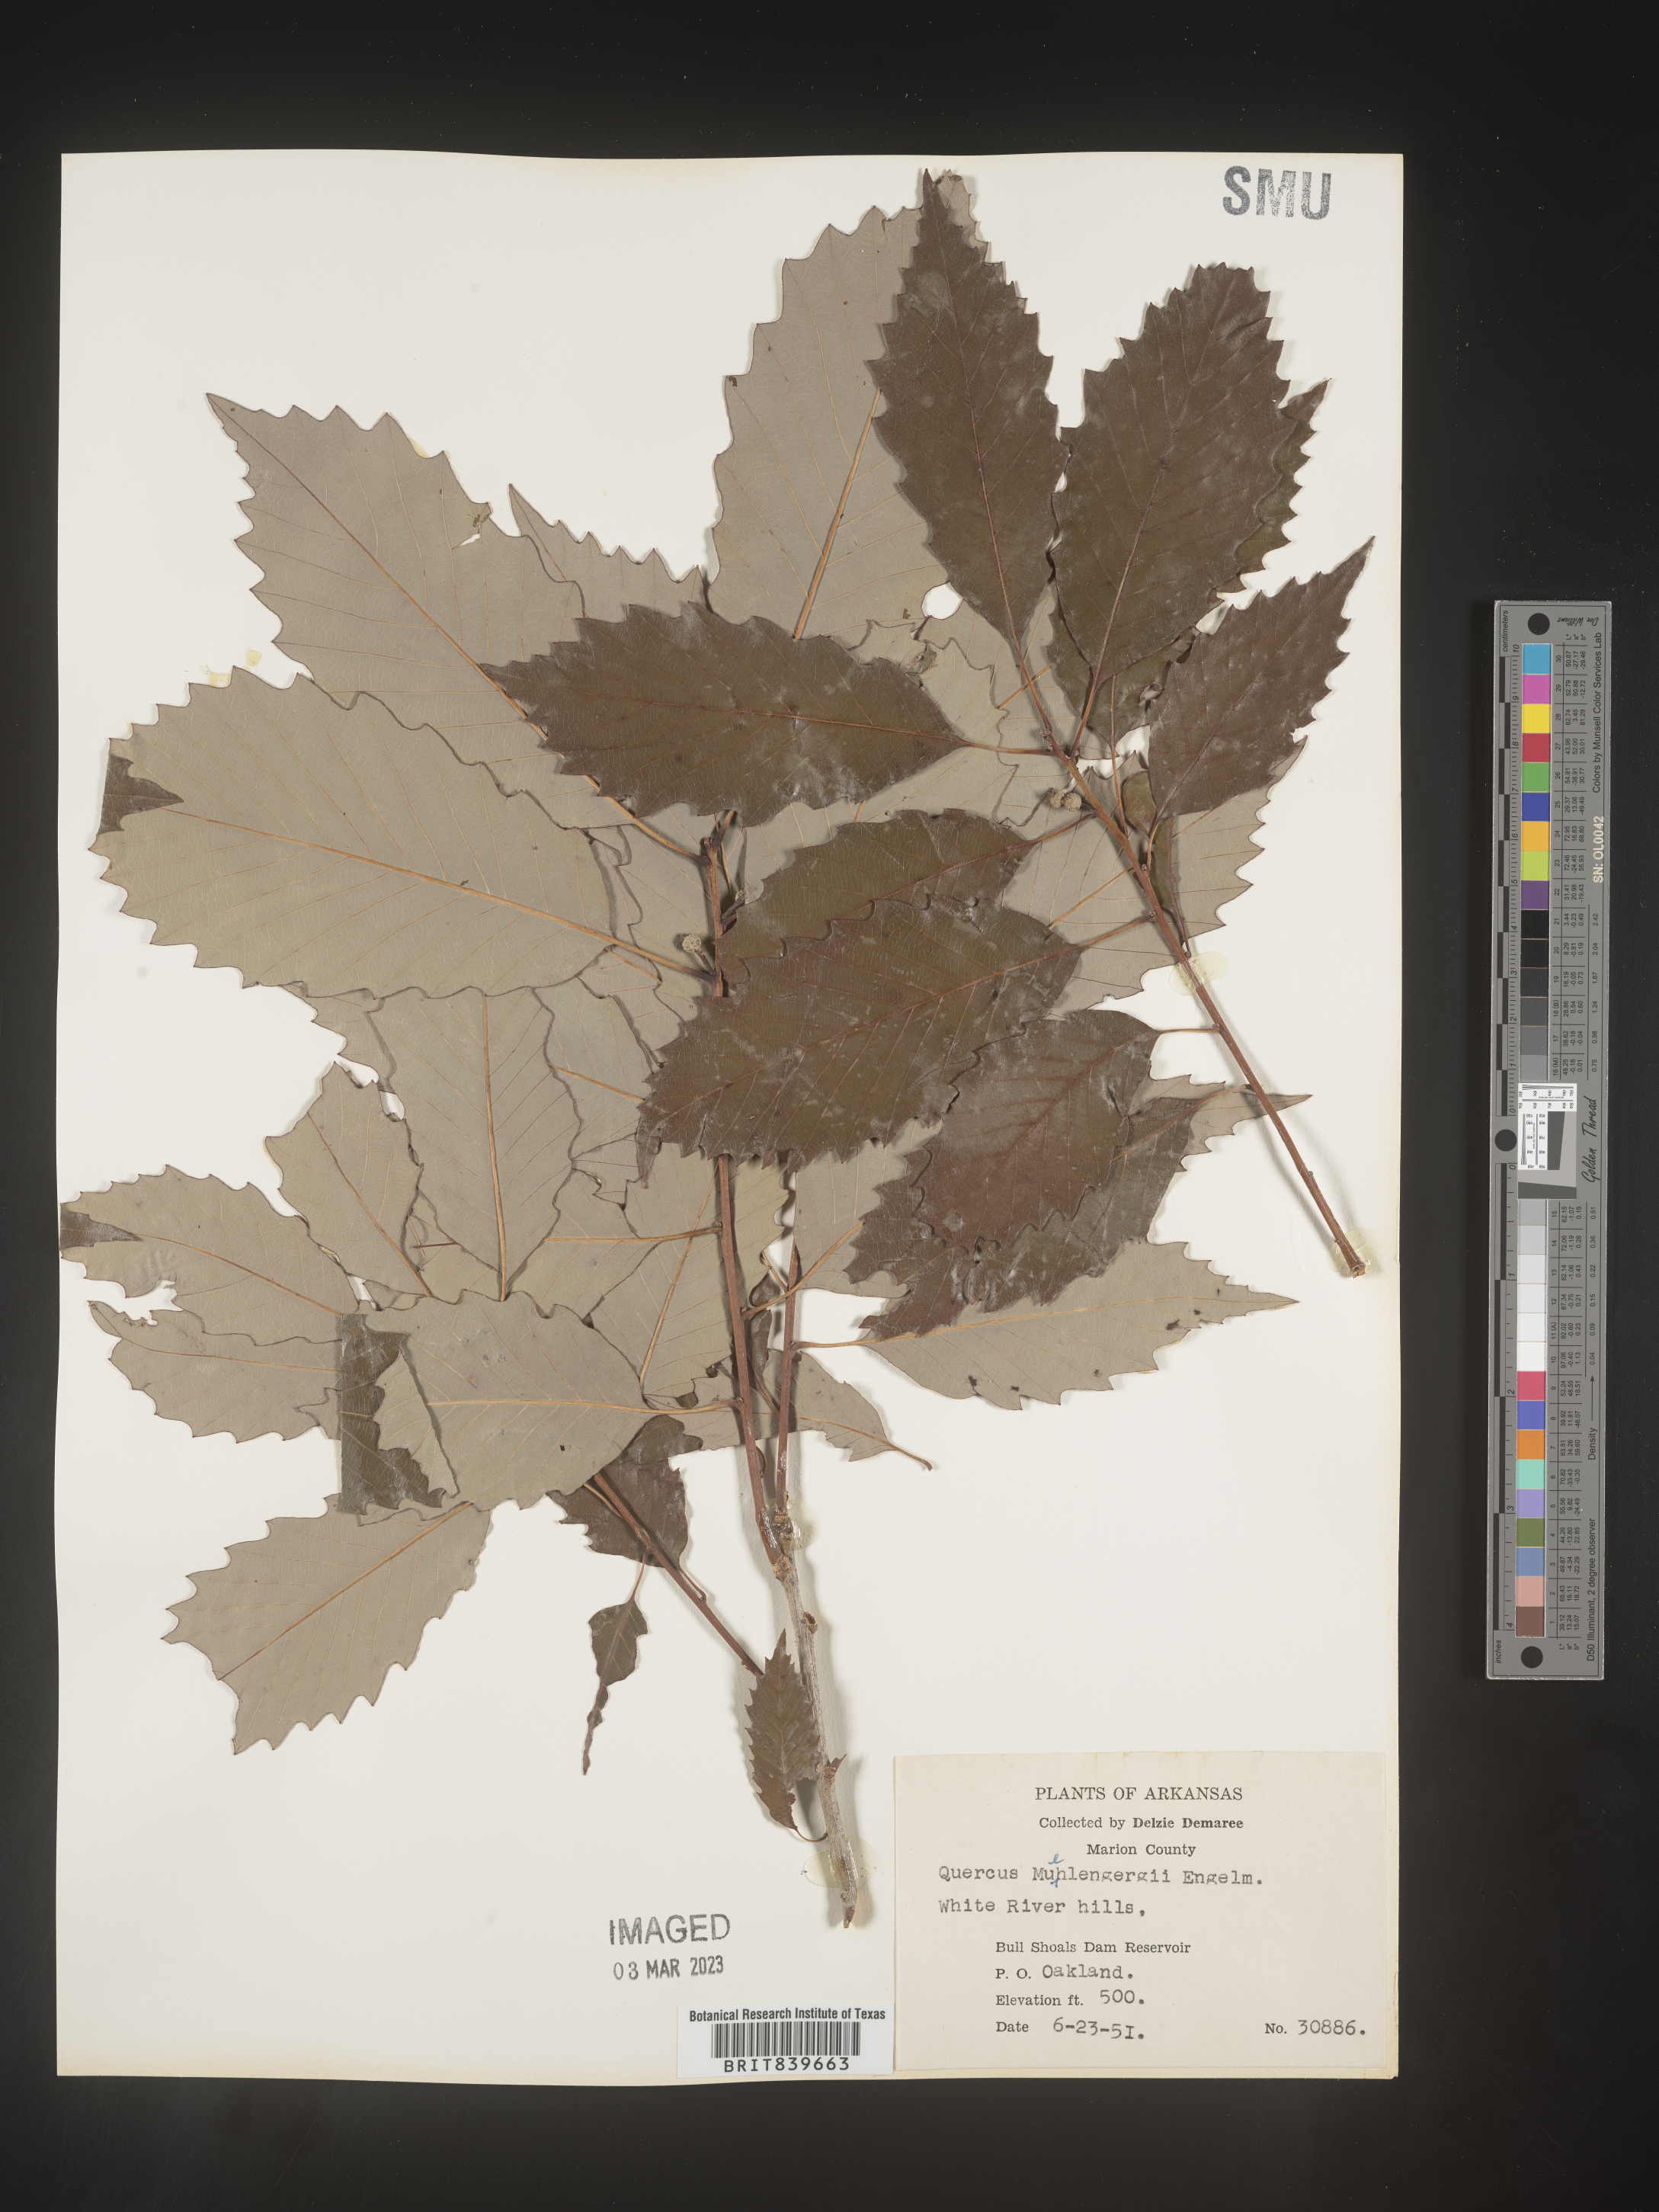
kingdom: Plantae
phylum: Tracheophyta
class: Magnoliopsida
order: Fagales
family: Fagaceae
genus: Quercus
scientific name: Quercus muehlenbergii
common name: Chinkapin oak
